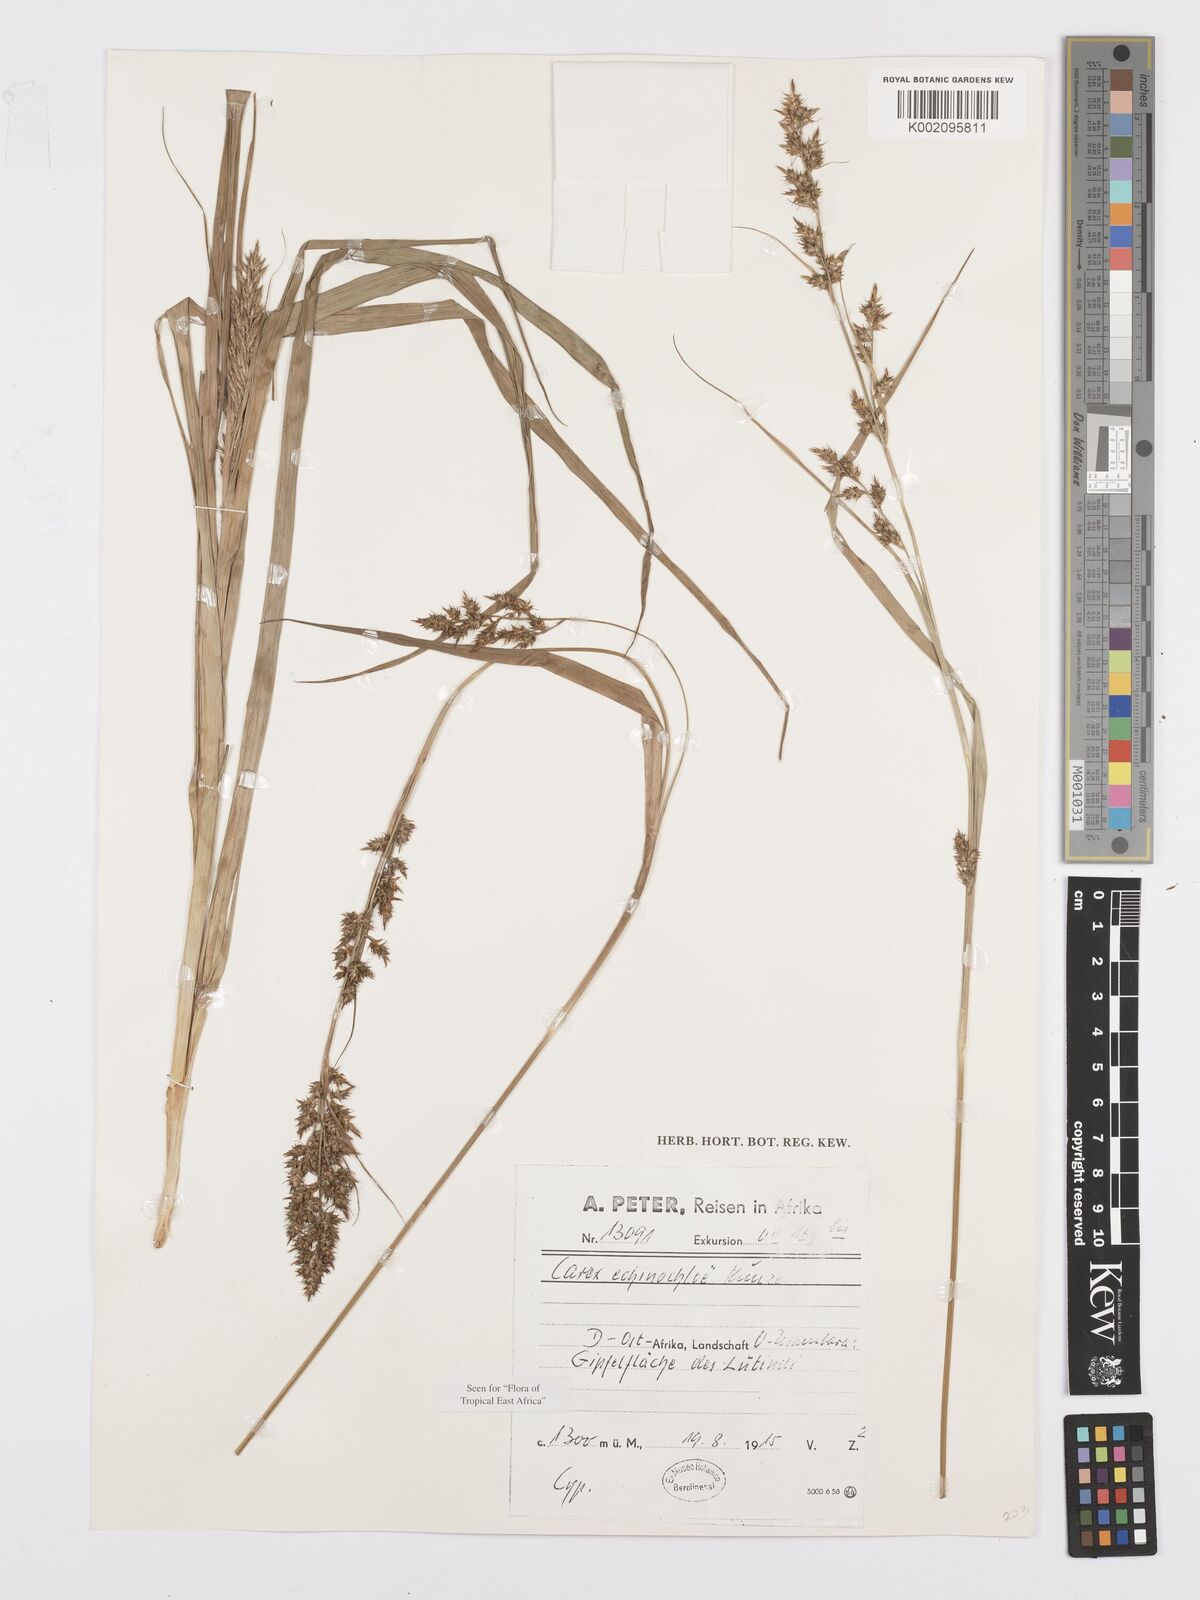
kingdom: Plantae
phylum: Tracheophyta
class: Liliopsida
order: Poales
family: Cyperaceae
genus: Carex
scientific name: Carex echinochloe
